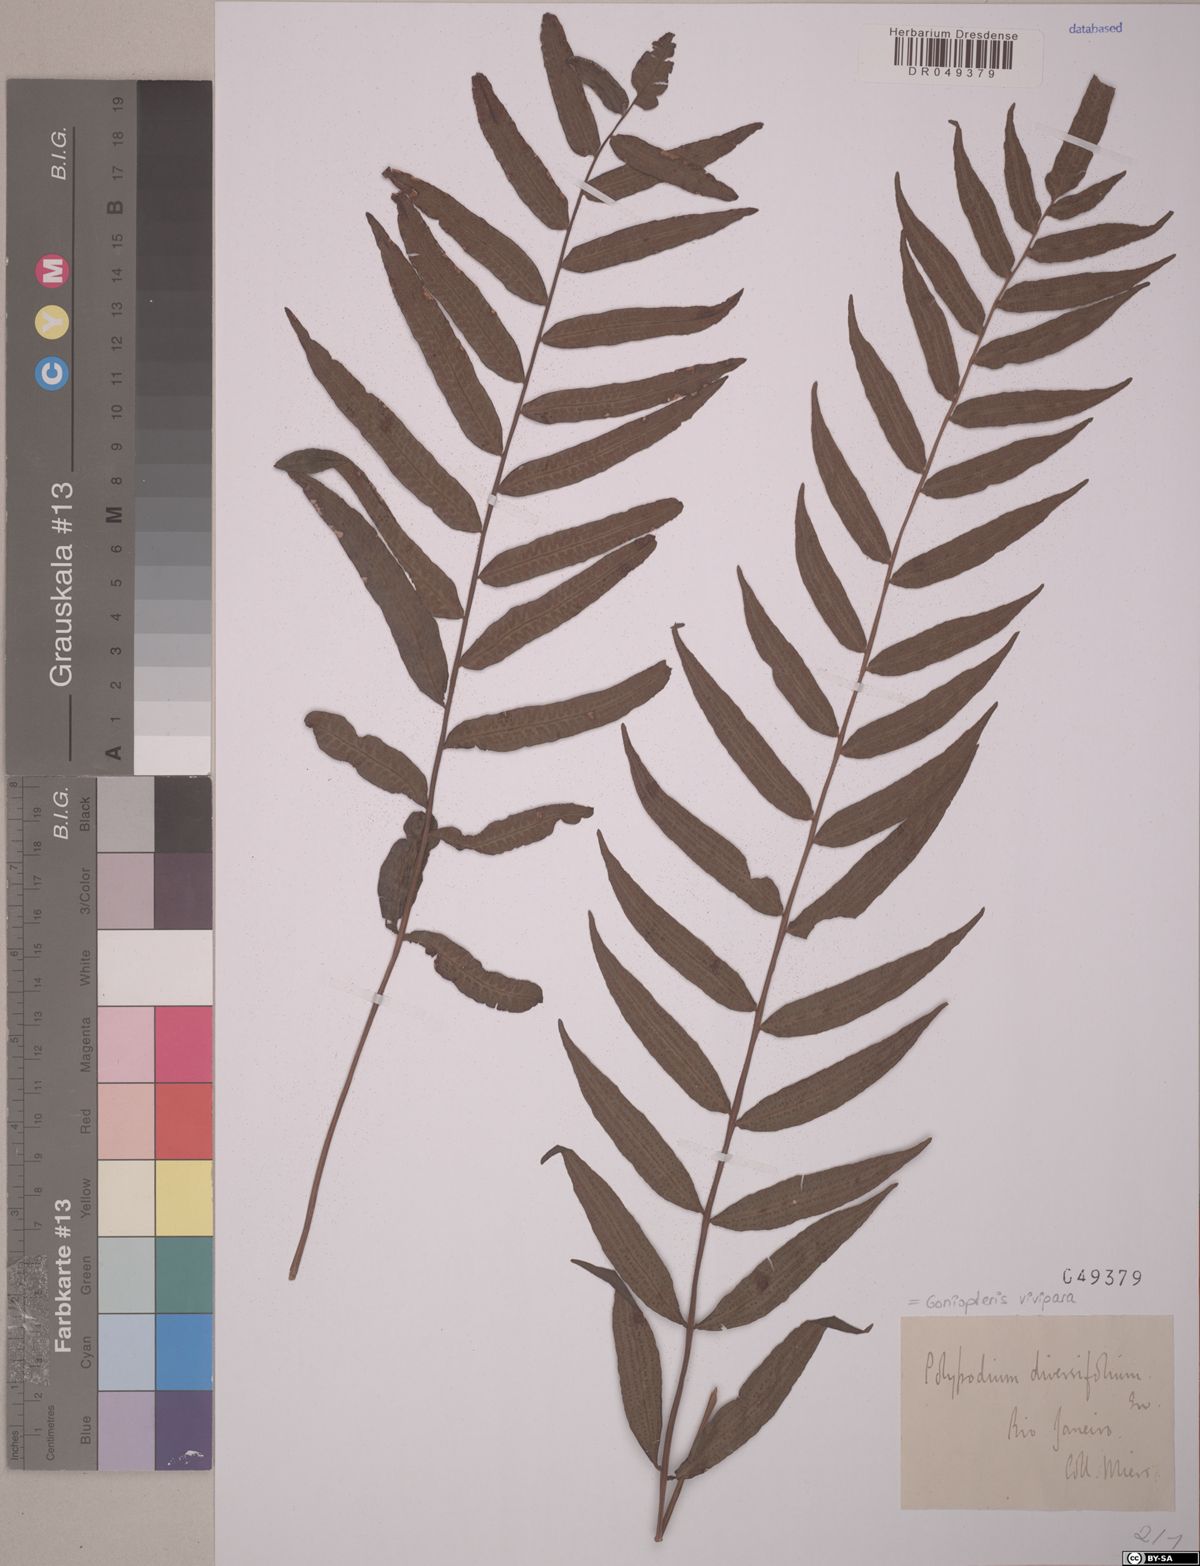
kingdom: Plantae
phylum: Tracheophyta
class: Polypodiopsida
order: Polypodiales
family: Thelypteridaceae
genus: Goniopteris
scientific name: Goniopteris vivipara
